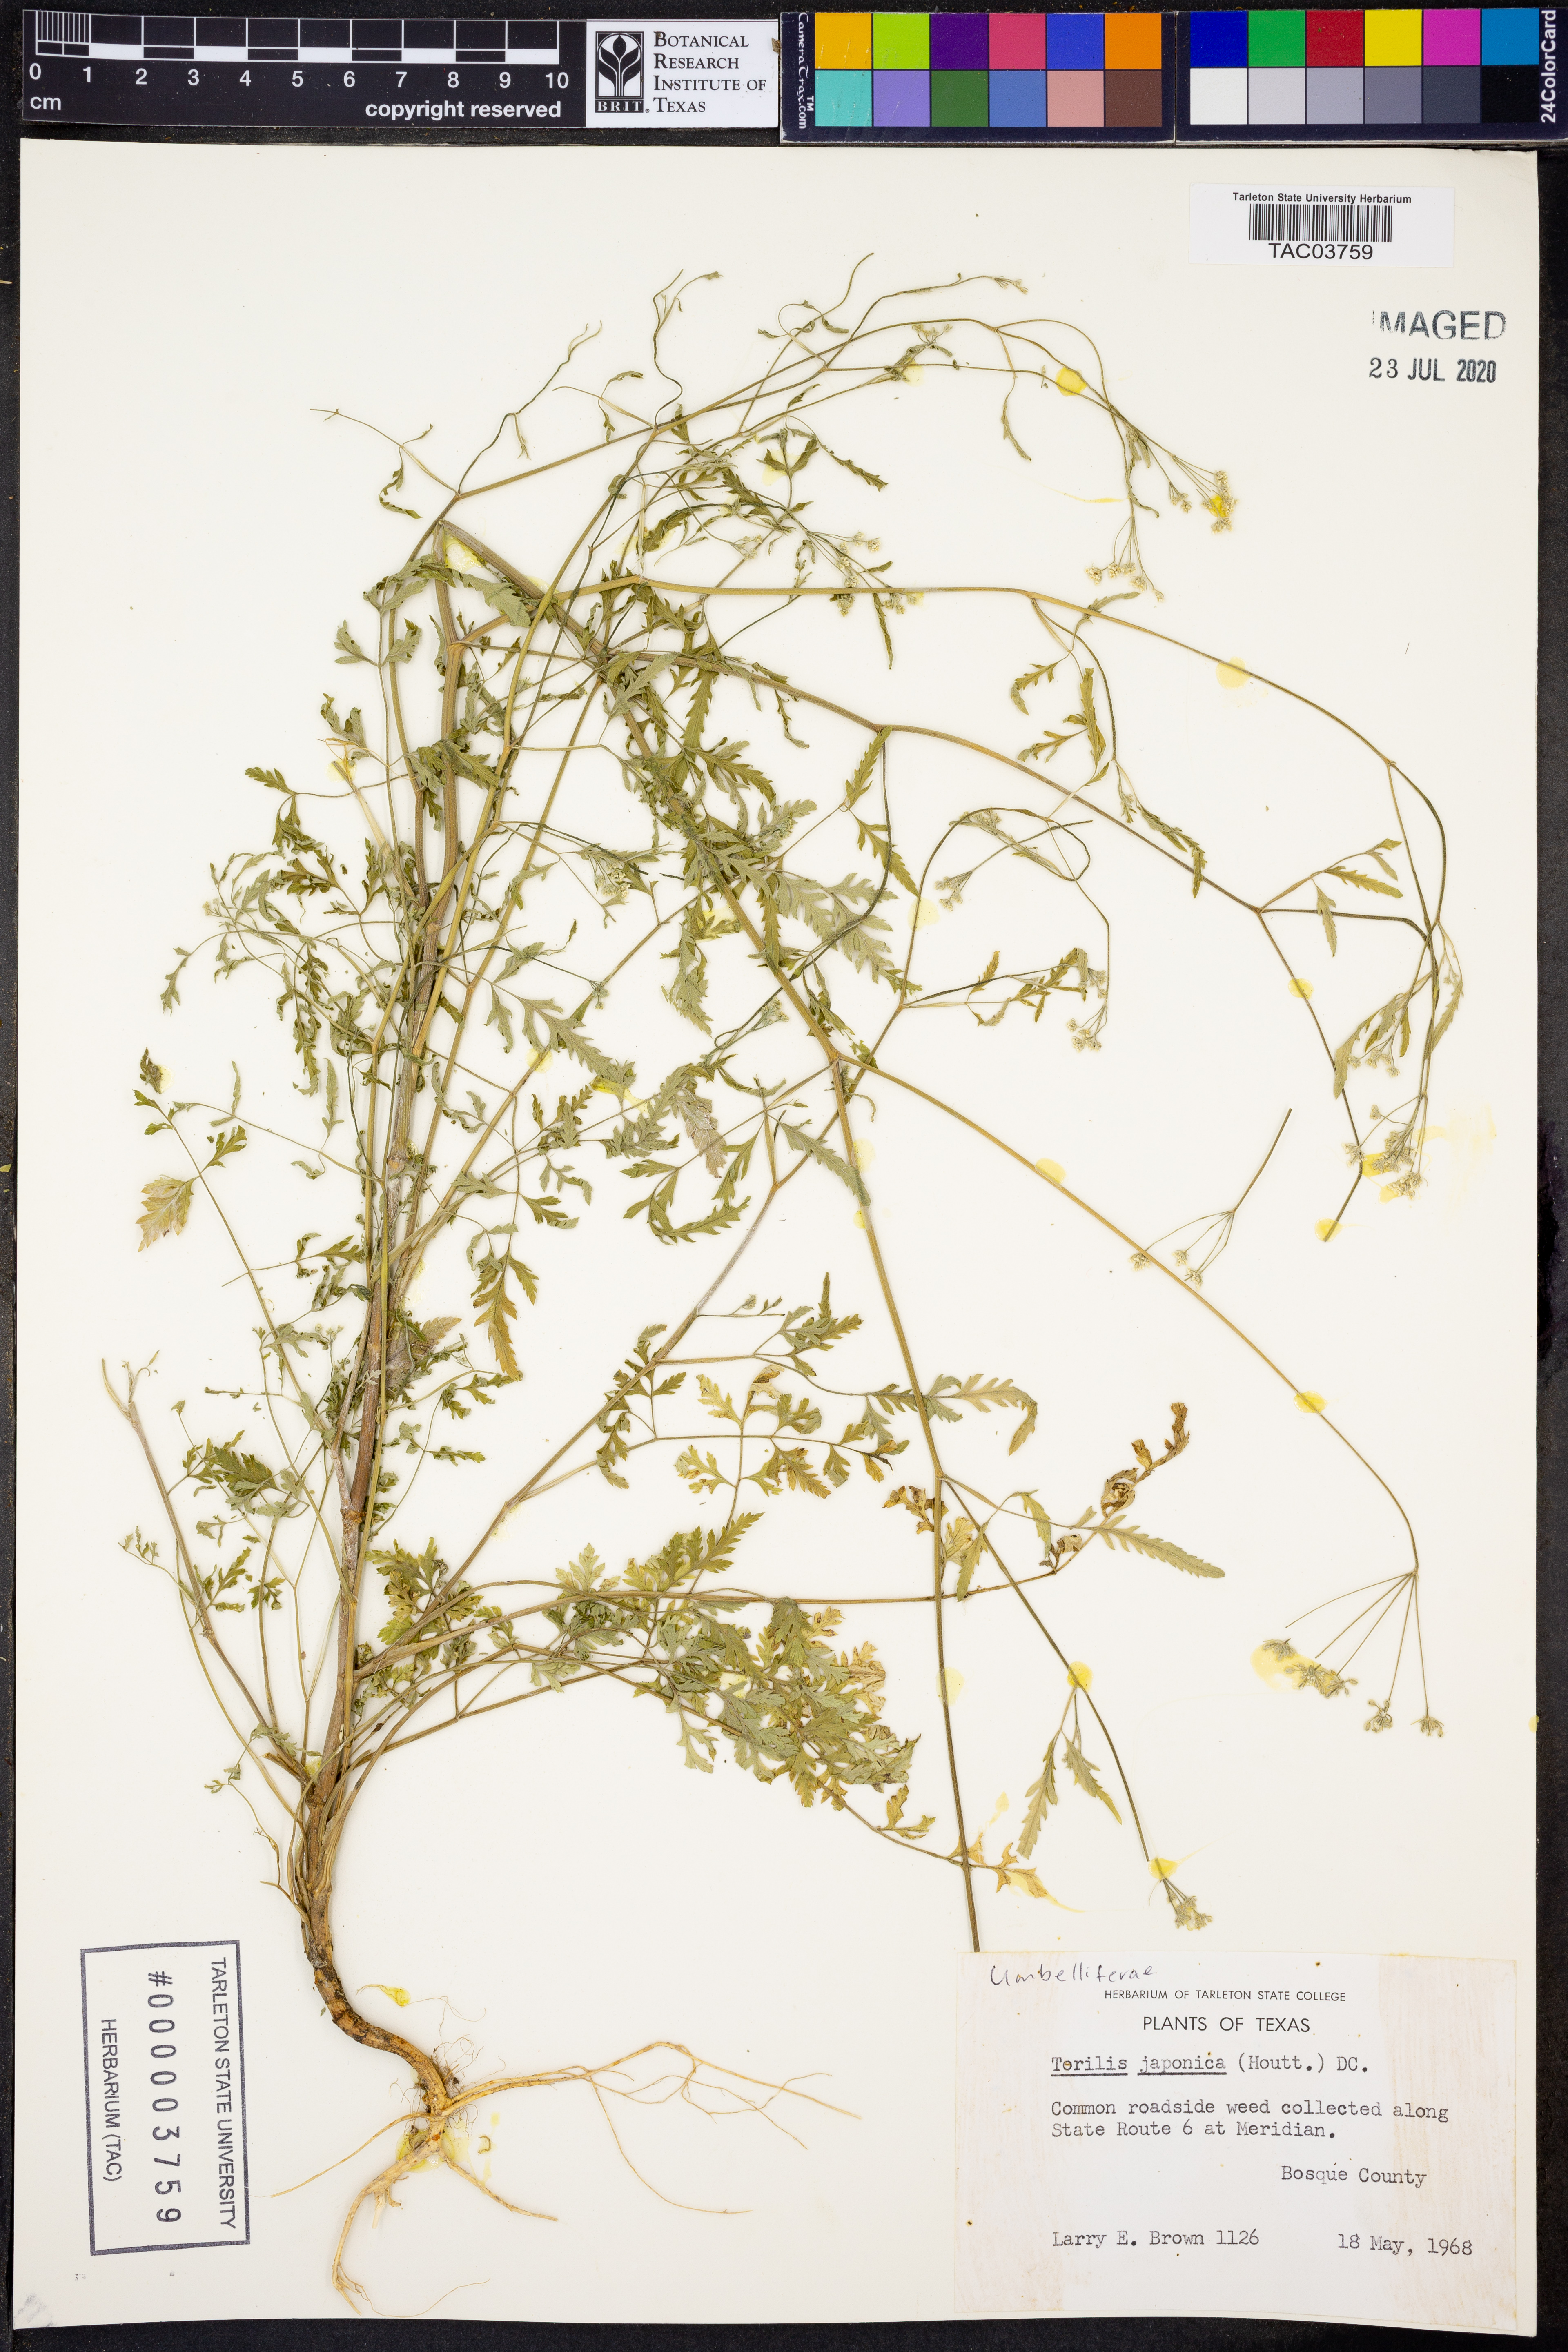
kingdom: Plantae
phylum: Tracheophyta
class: Magnoliopsida
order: Apiales
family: Apiaceae
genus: Torilis
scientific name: Torilis japonica
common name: Upright hedge-parsley
